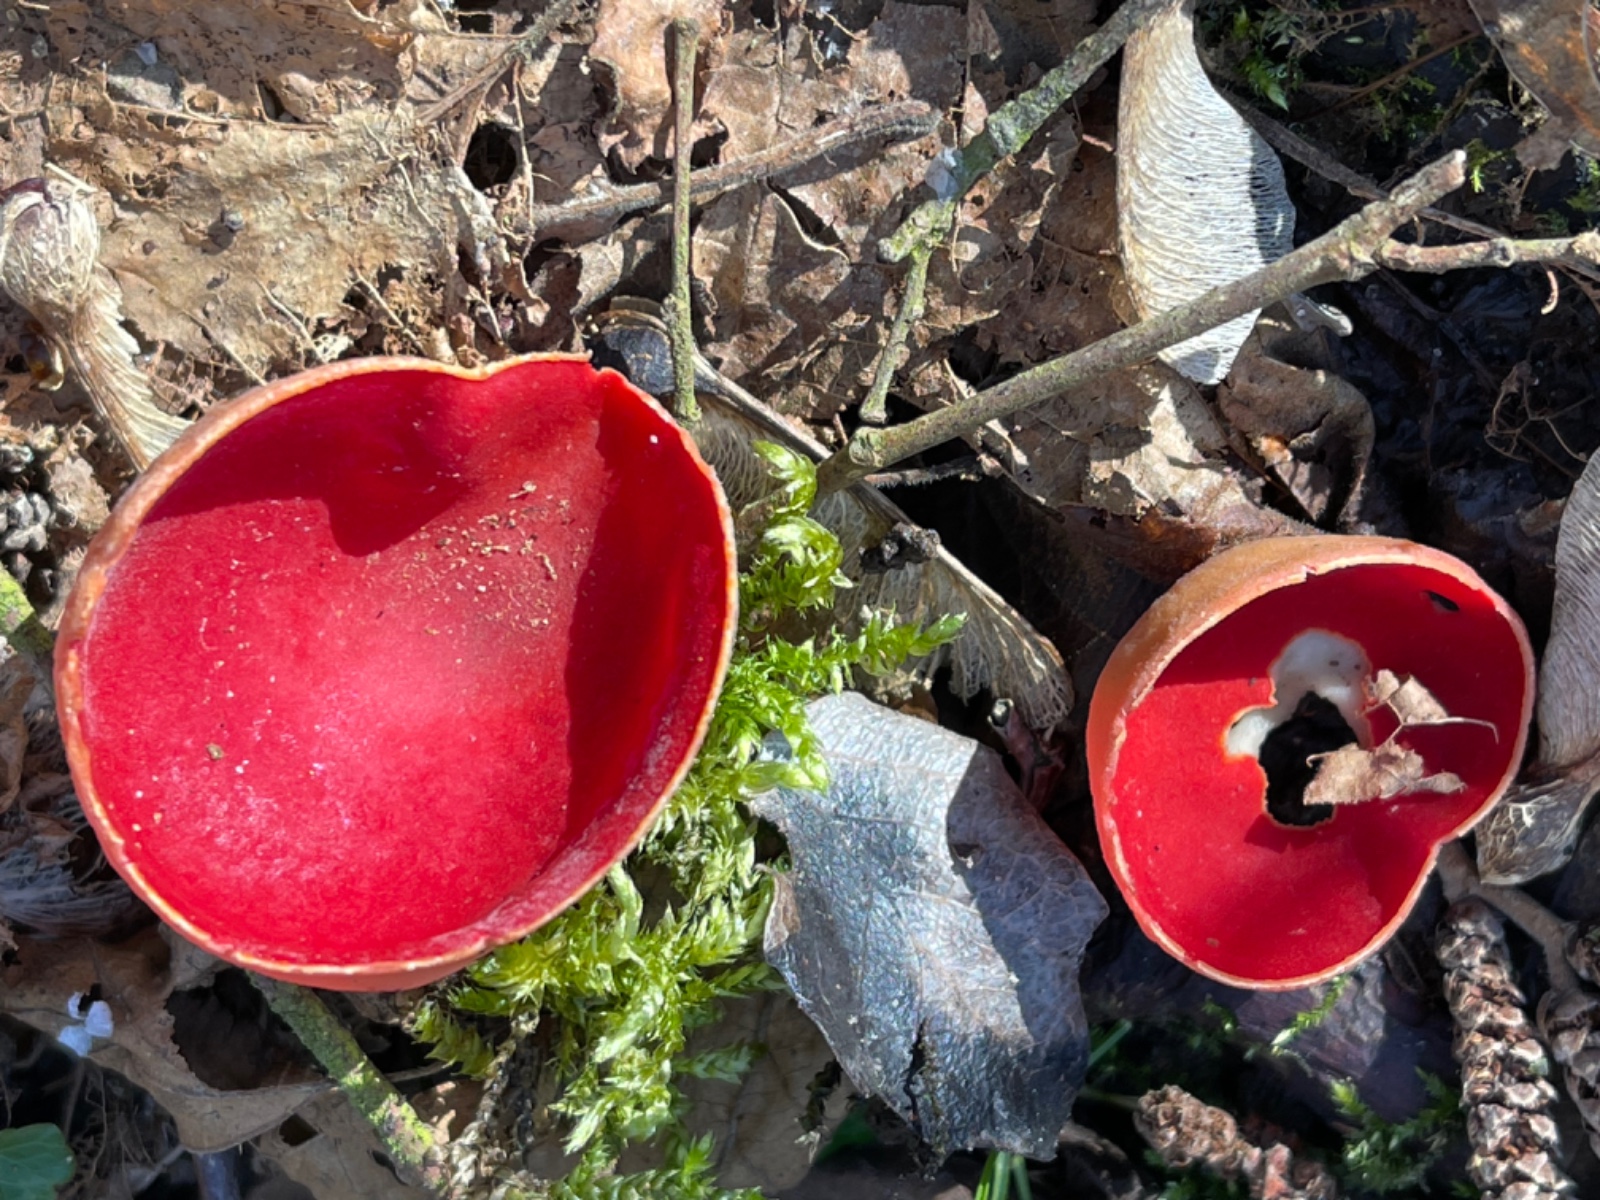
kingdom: Fungi
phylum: Ascomycota
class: Pezizomycetes
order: Pezizales
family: Sarcoscyphaceae
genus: Sarcoscypha
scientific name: Sarcoscypha austriaca
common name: krølhåret pragtbæger
